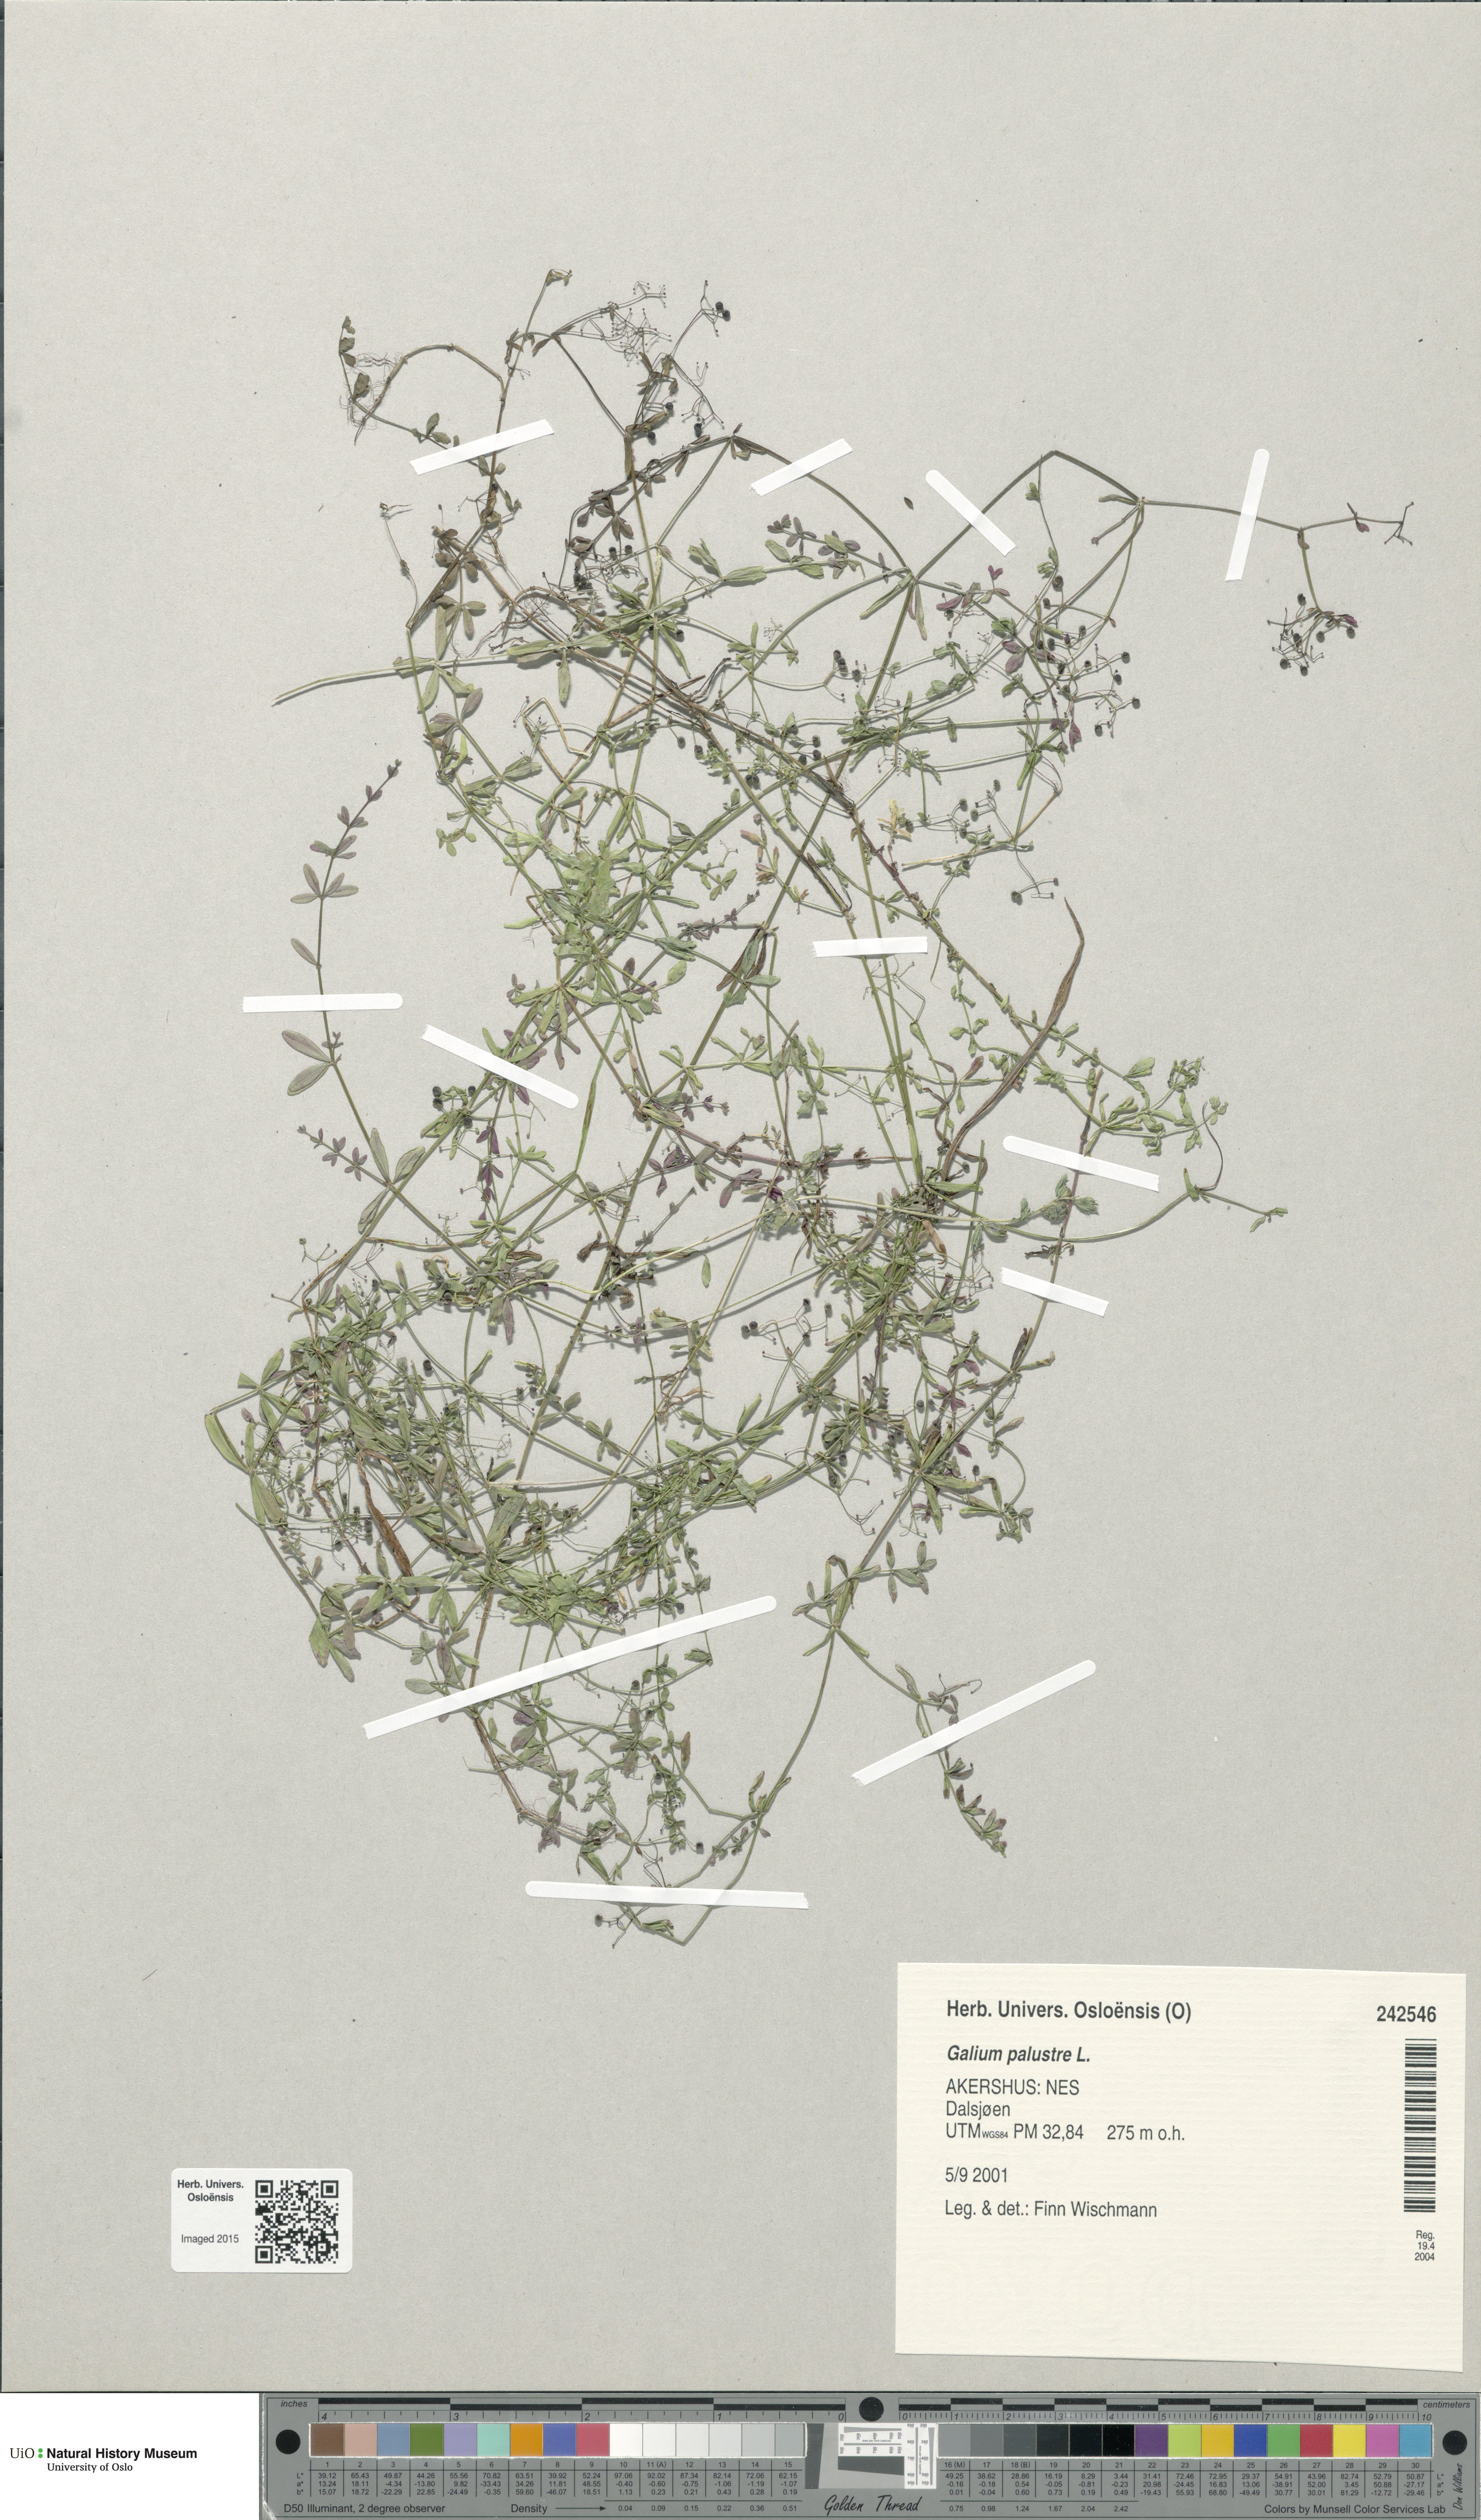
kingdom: Plantae
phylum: Tracheophyta
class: Magnoliopsida
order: Gentianales
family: Rubiaceae
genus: Galium
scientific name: Galium palustre
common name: Common marsh-bedstraw
